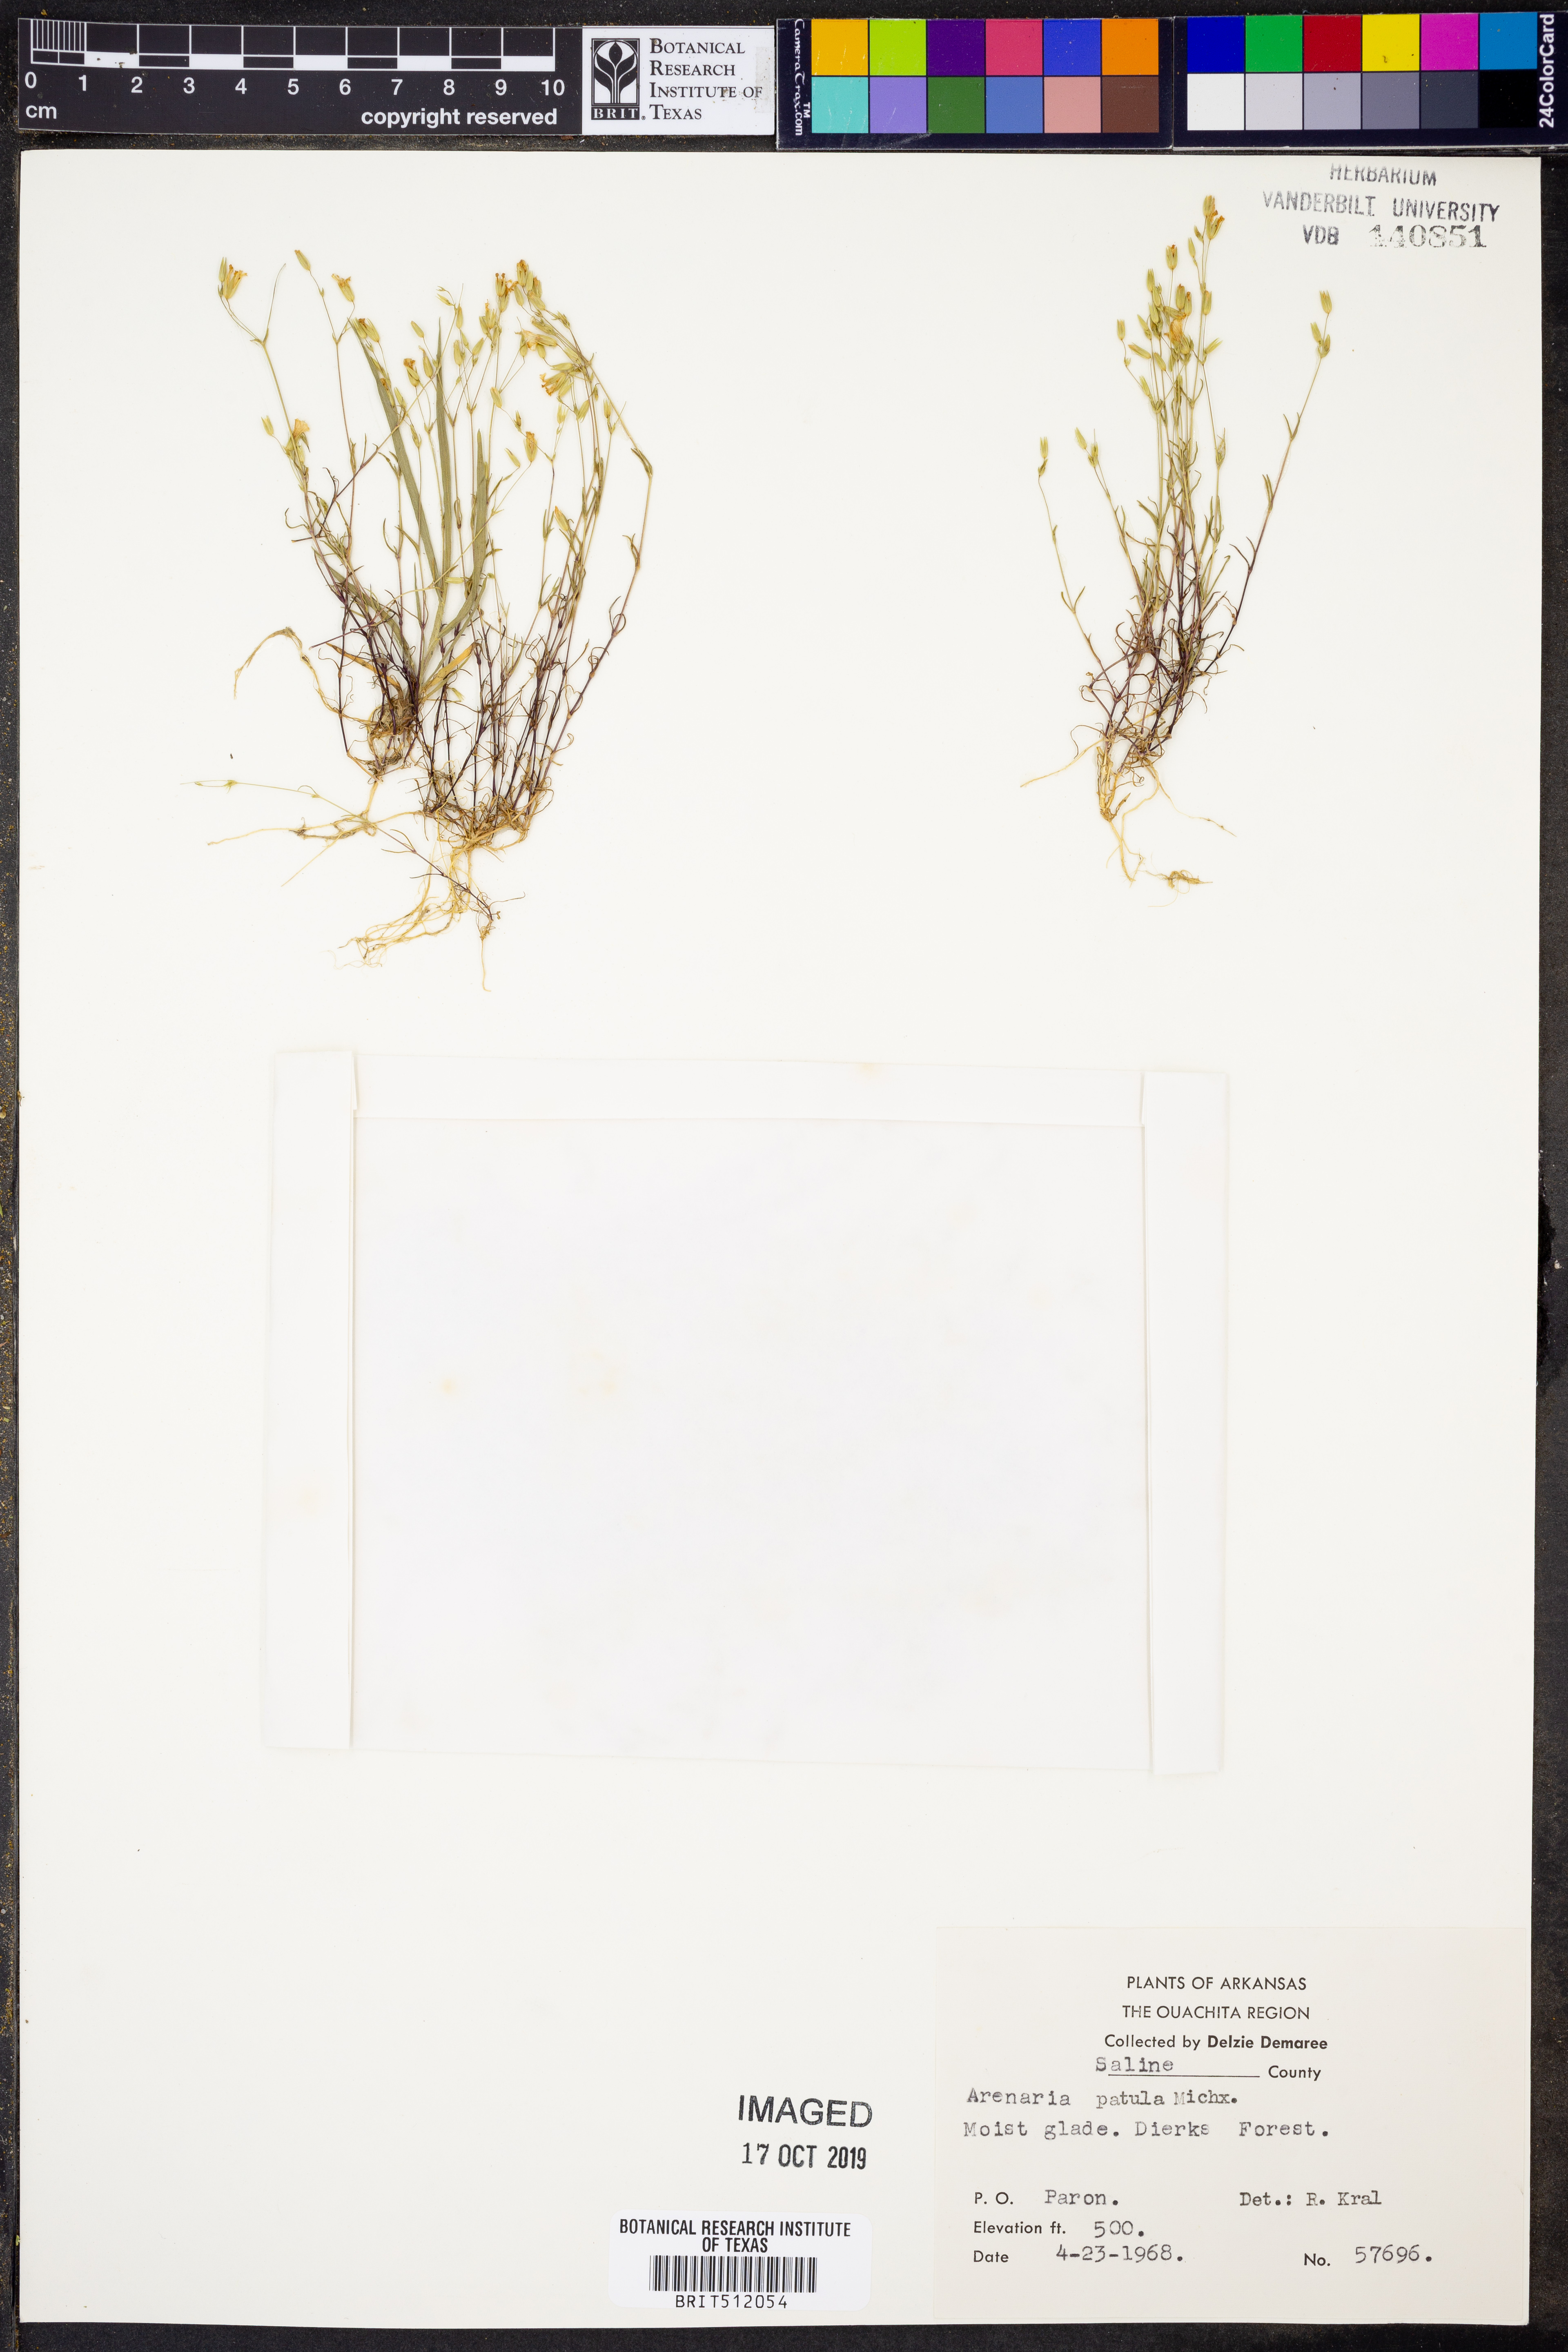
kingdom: Plantae
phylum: Tracheophyta
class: Magnoliopsida
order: Caryophyllales
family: Caryophyllaceae
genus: Mononeuria
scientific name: Mononeuria patula
